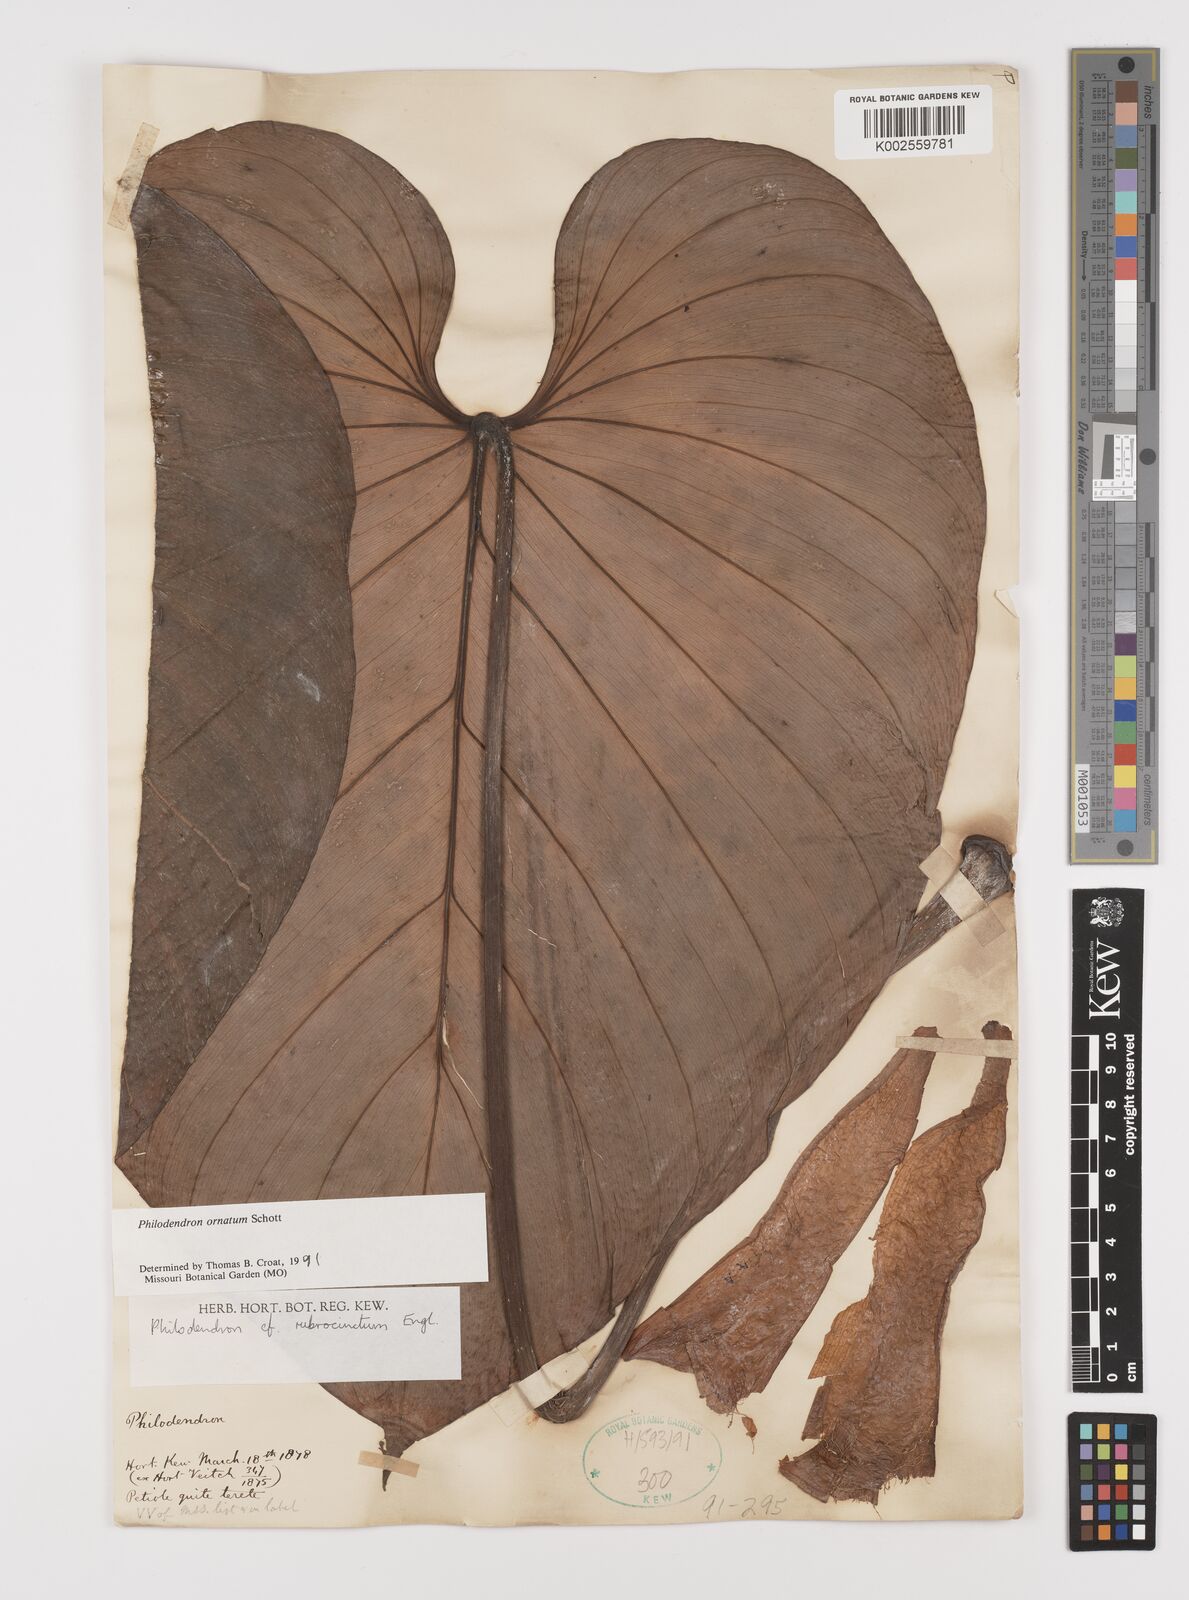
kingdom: Plantae
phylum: Tracheophyta
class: Liliopsida
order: Alismatales
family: Araceae
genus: Philodendron
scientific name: Philodendron ornatum
